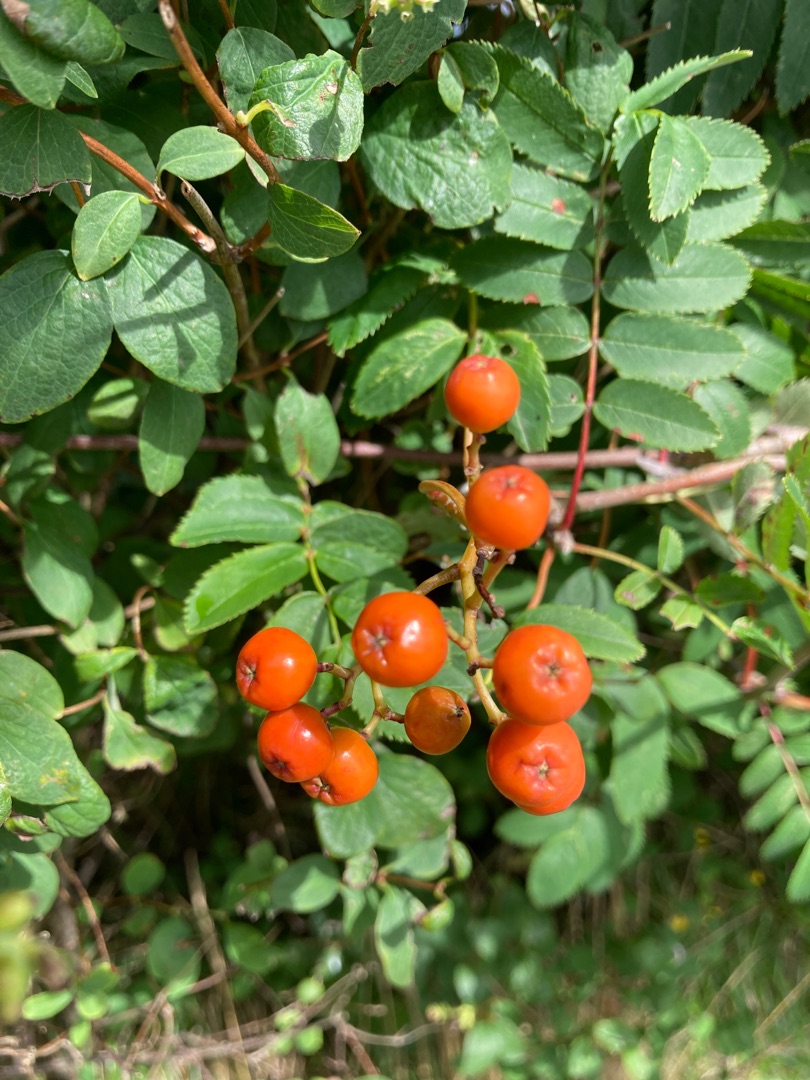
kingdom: Plantae
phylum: Tracheophyta
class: Magnoliopsida
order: Rosales
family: Rosaceae
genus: Sorbus
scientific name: Sorbus aucuparia
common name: Almindelig røn
